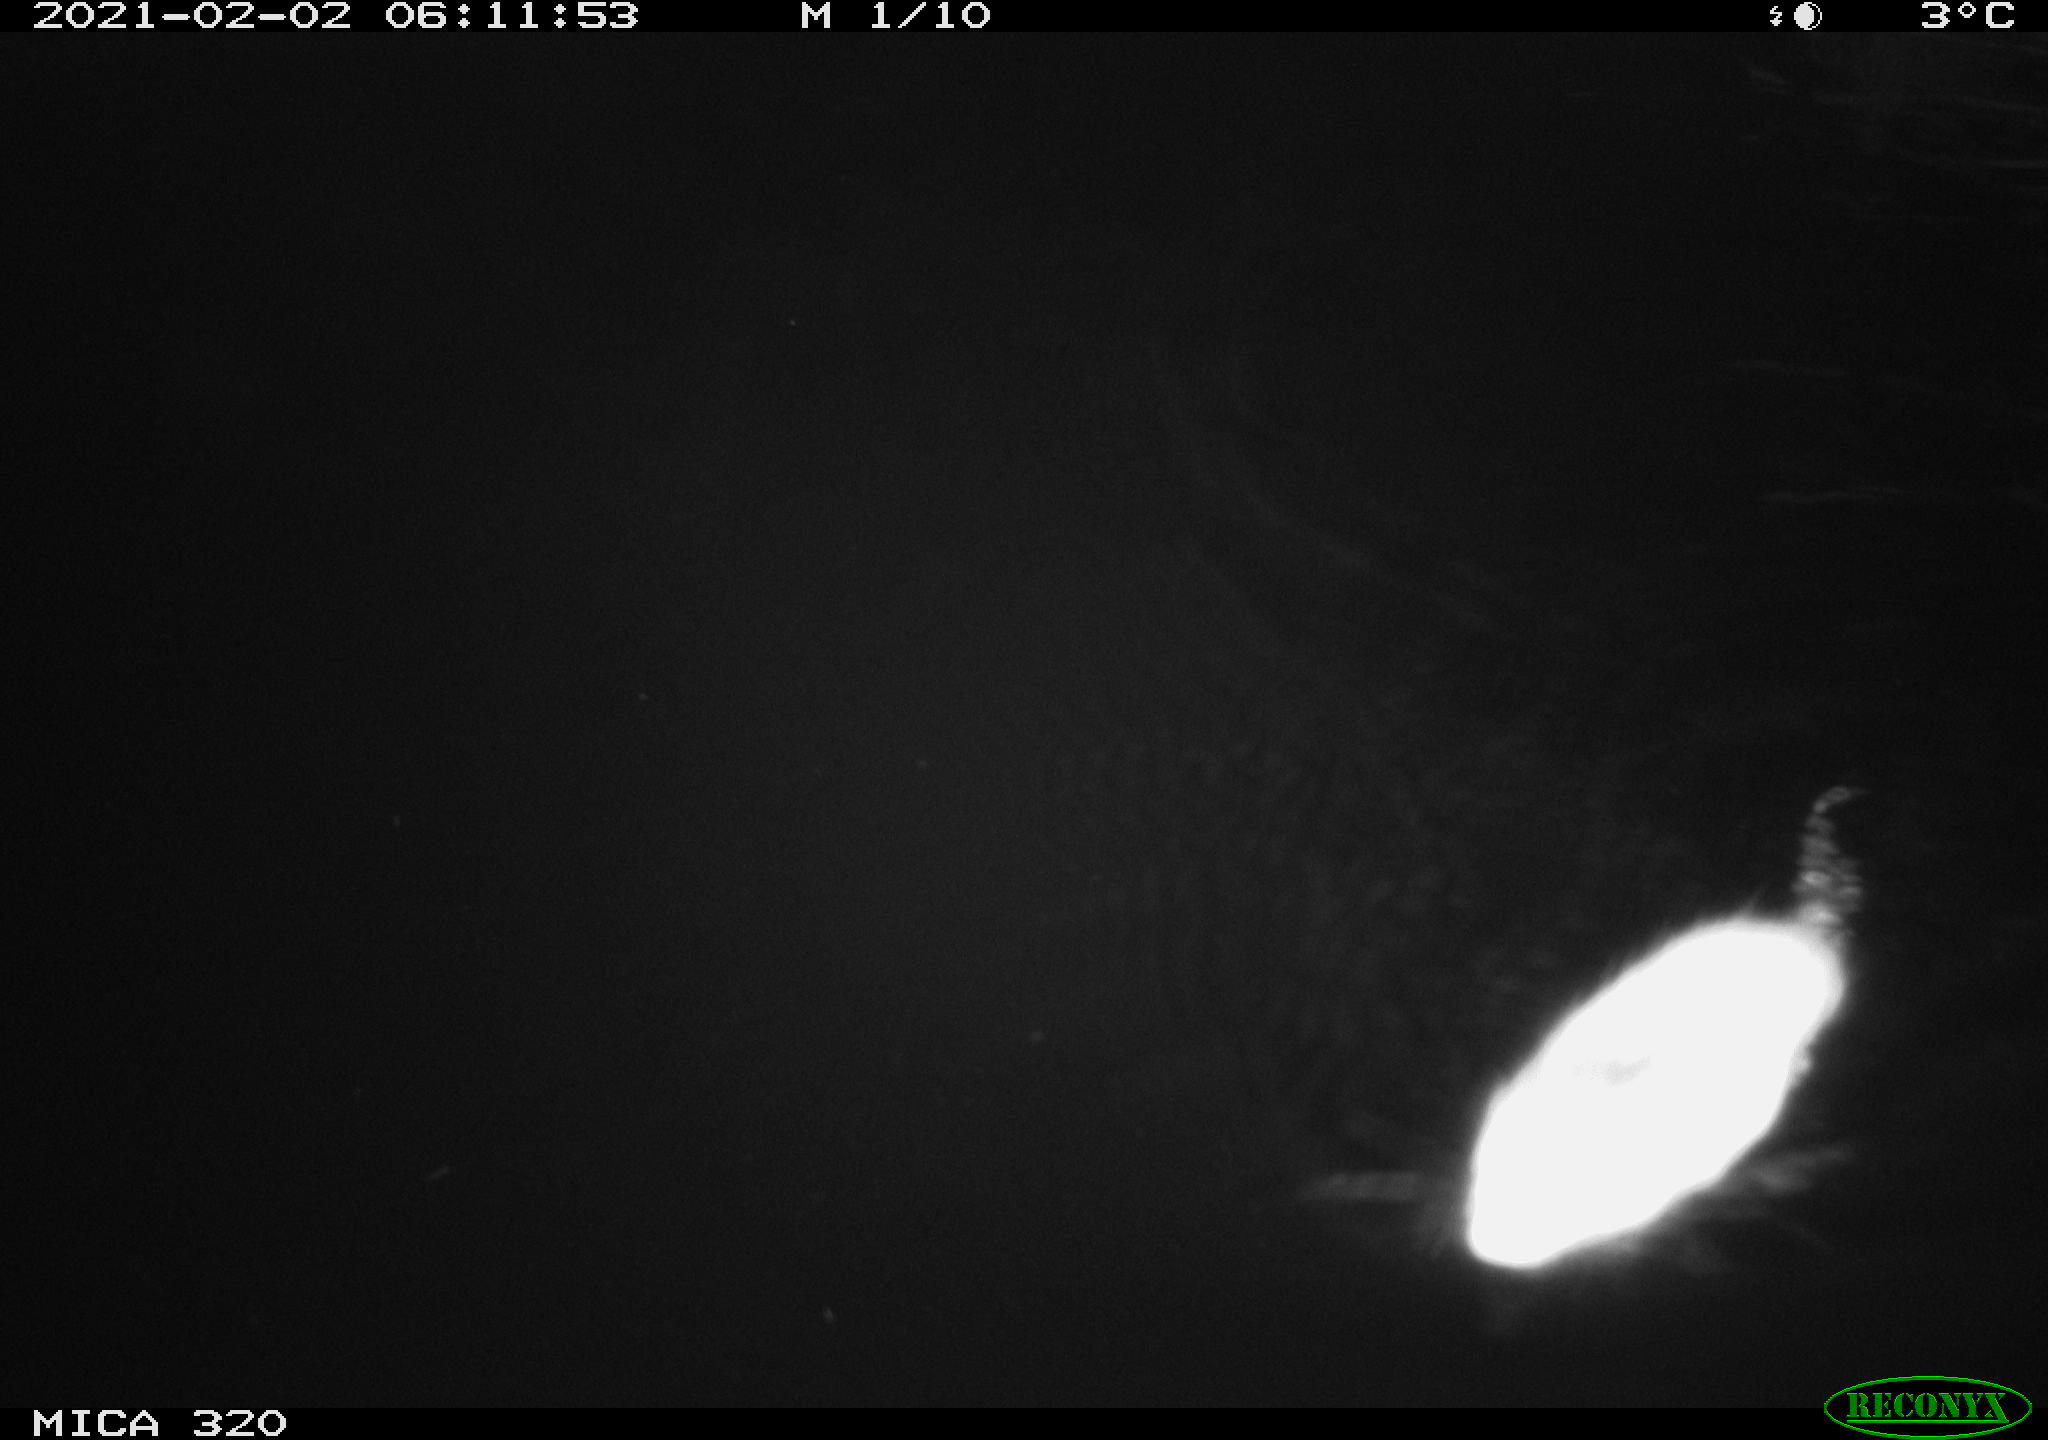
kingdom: Animalia
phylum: Chordata
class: Mammalia
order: Rodentia
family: Cricetidae
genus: Ondatra
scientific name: Ondatra zibethicus
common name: Muskrat
